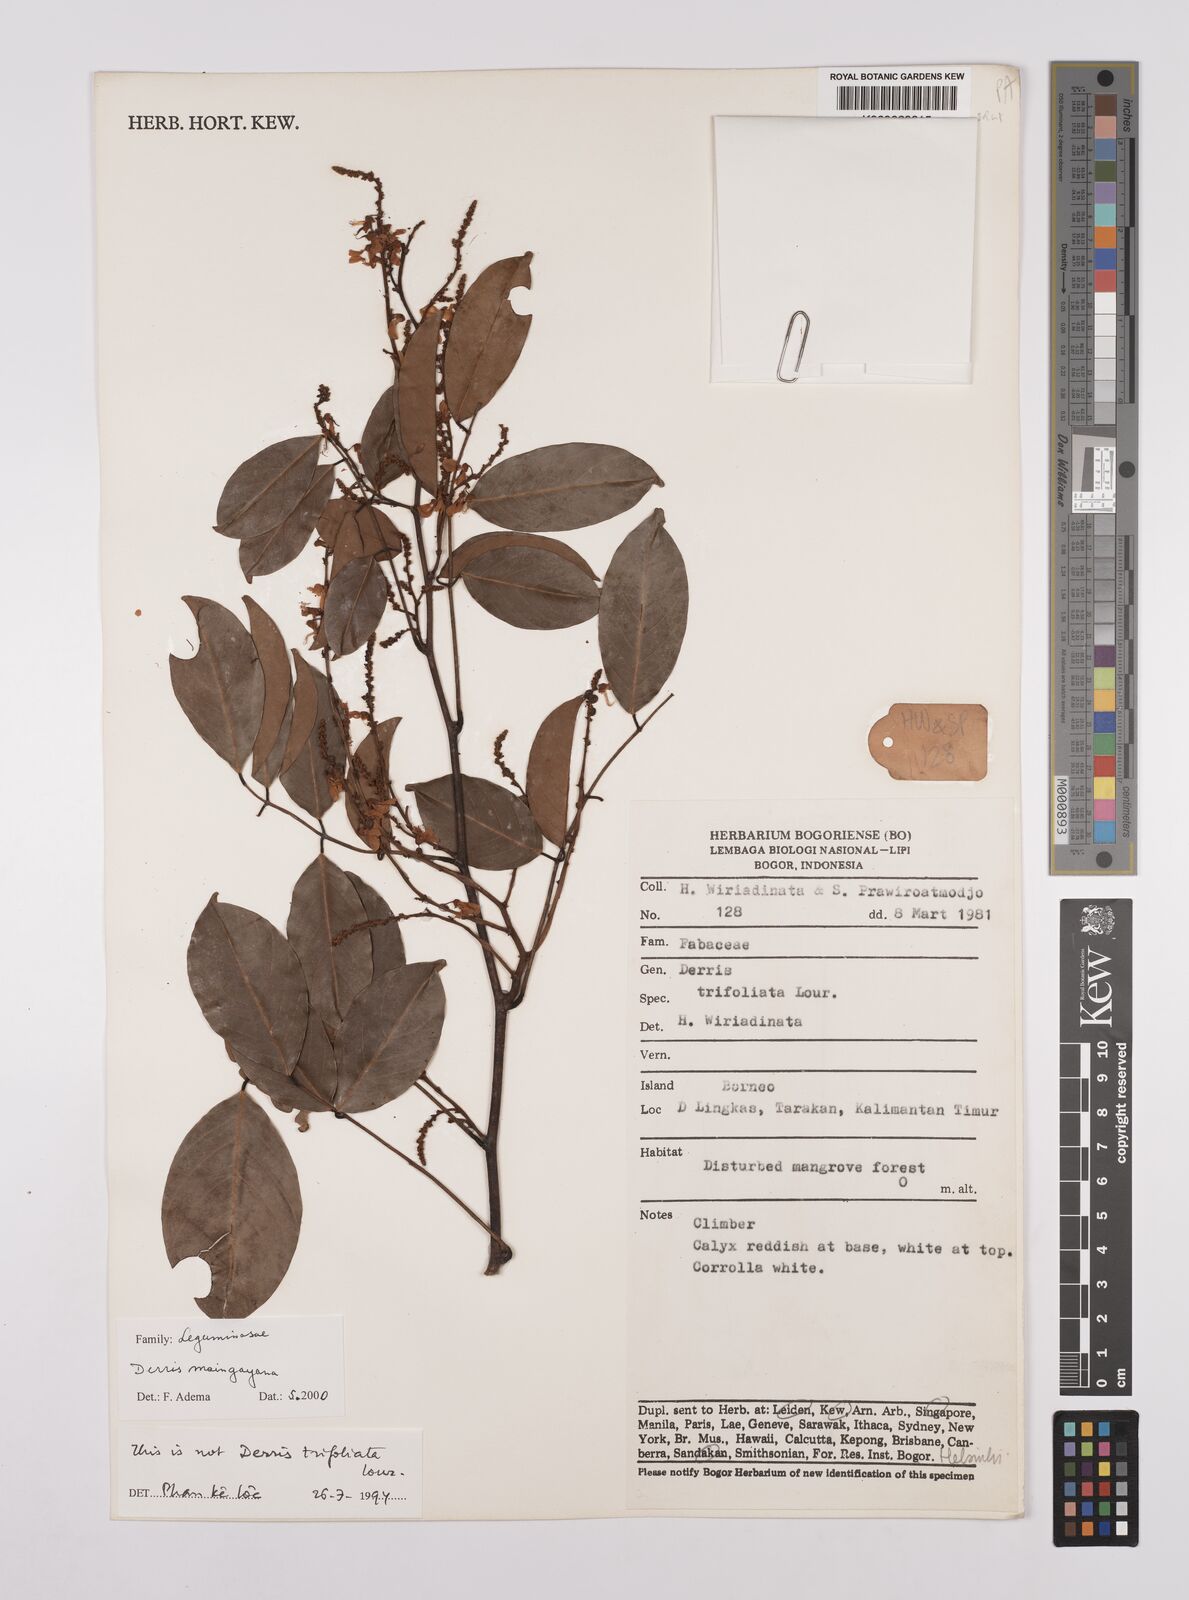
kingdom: Plantae
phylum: Tracheophyta
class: Magnoliopsida
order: Fabales
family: Fabaceae
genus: Derris
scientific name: Derris amoena
